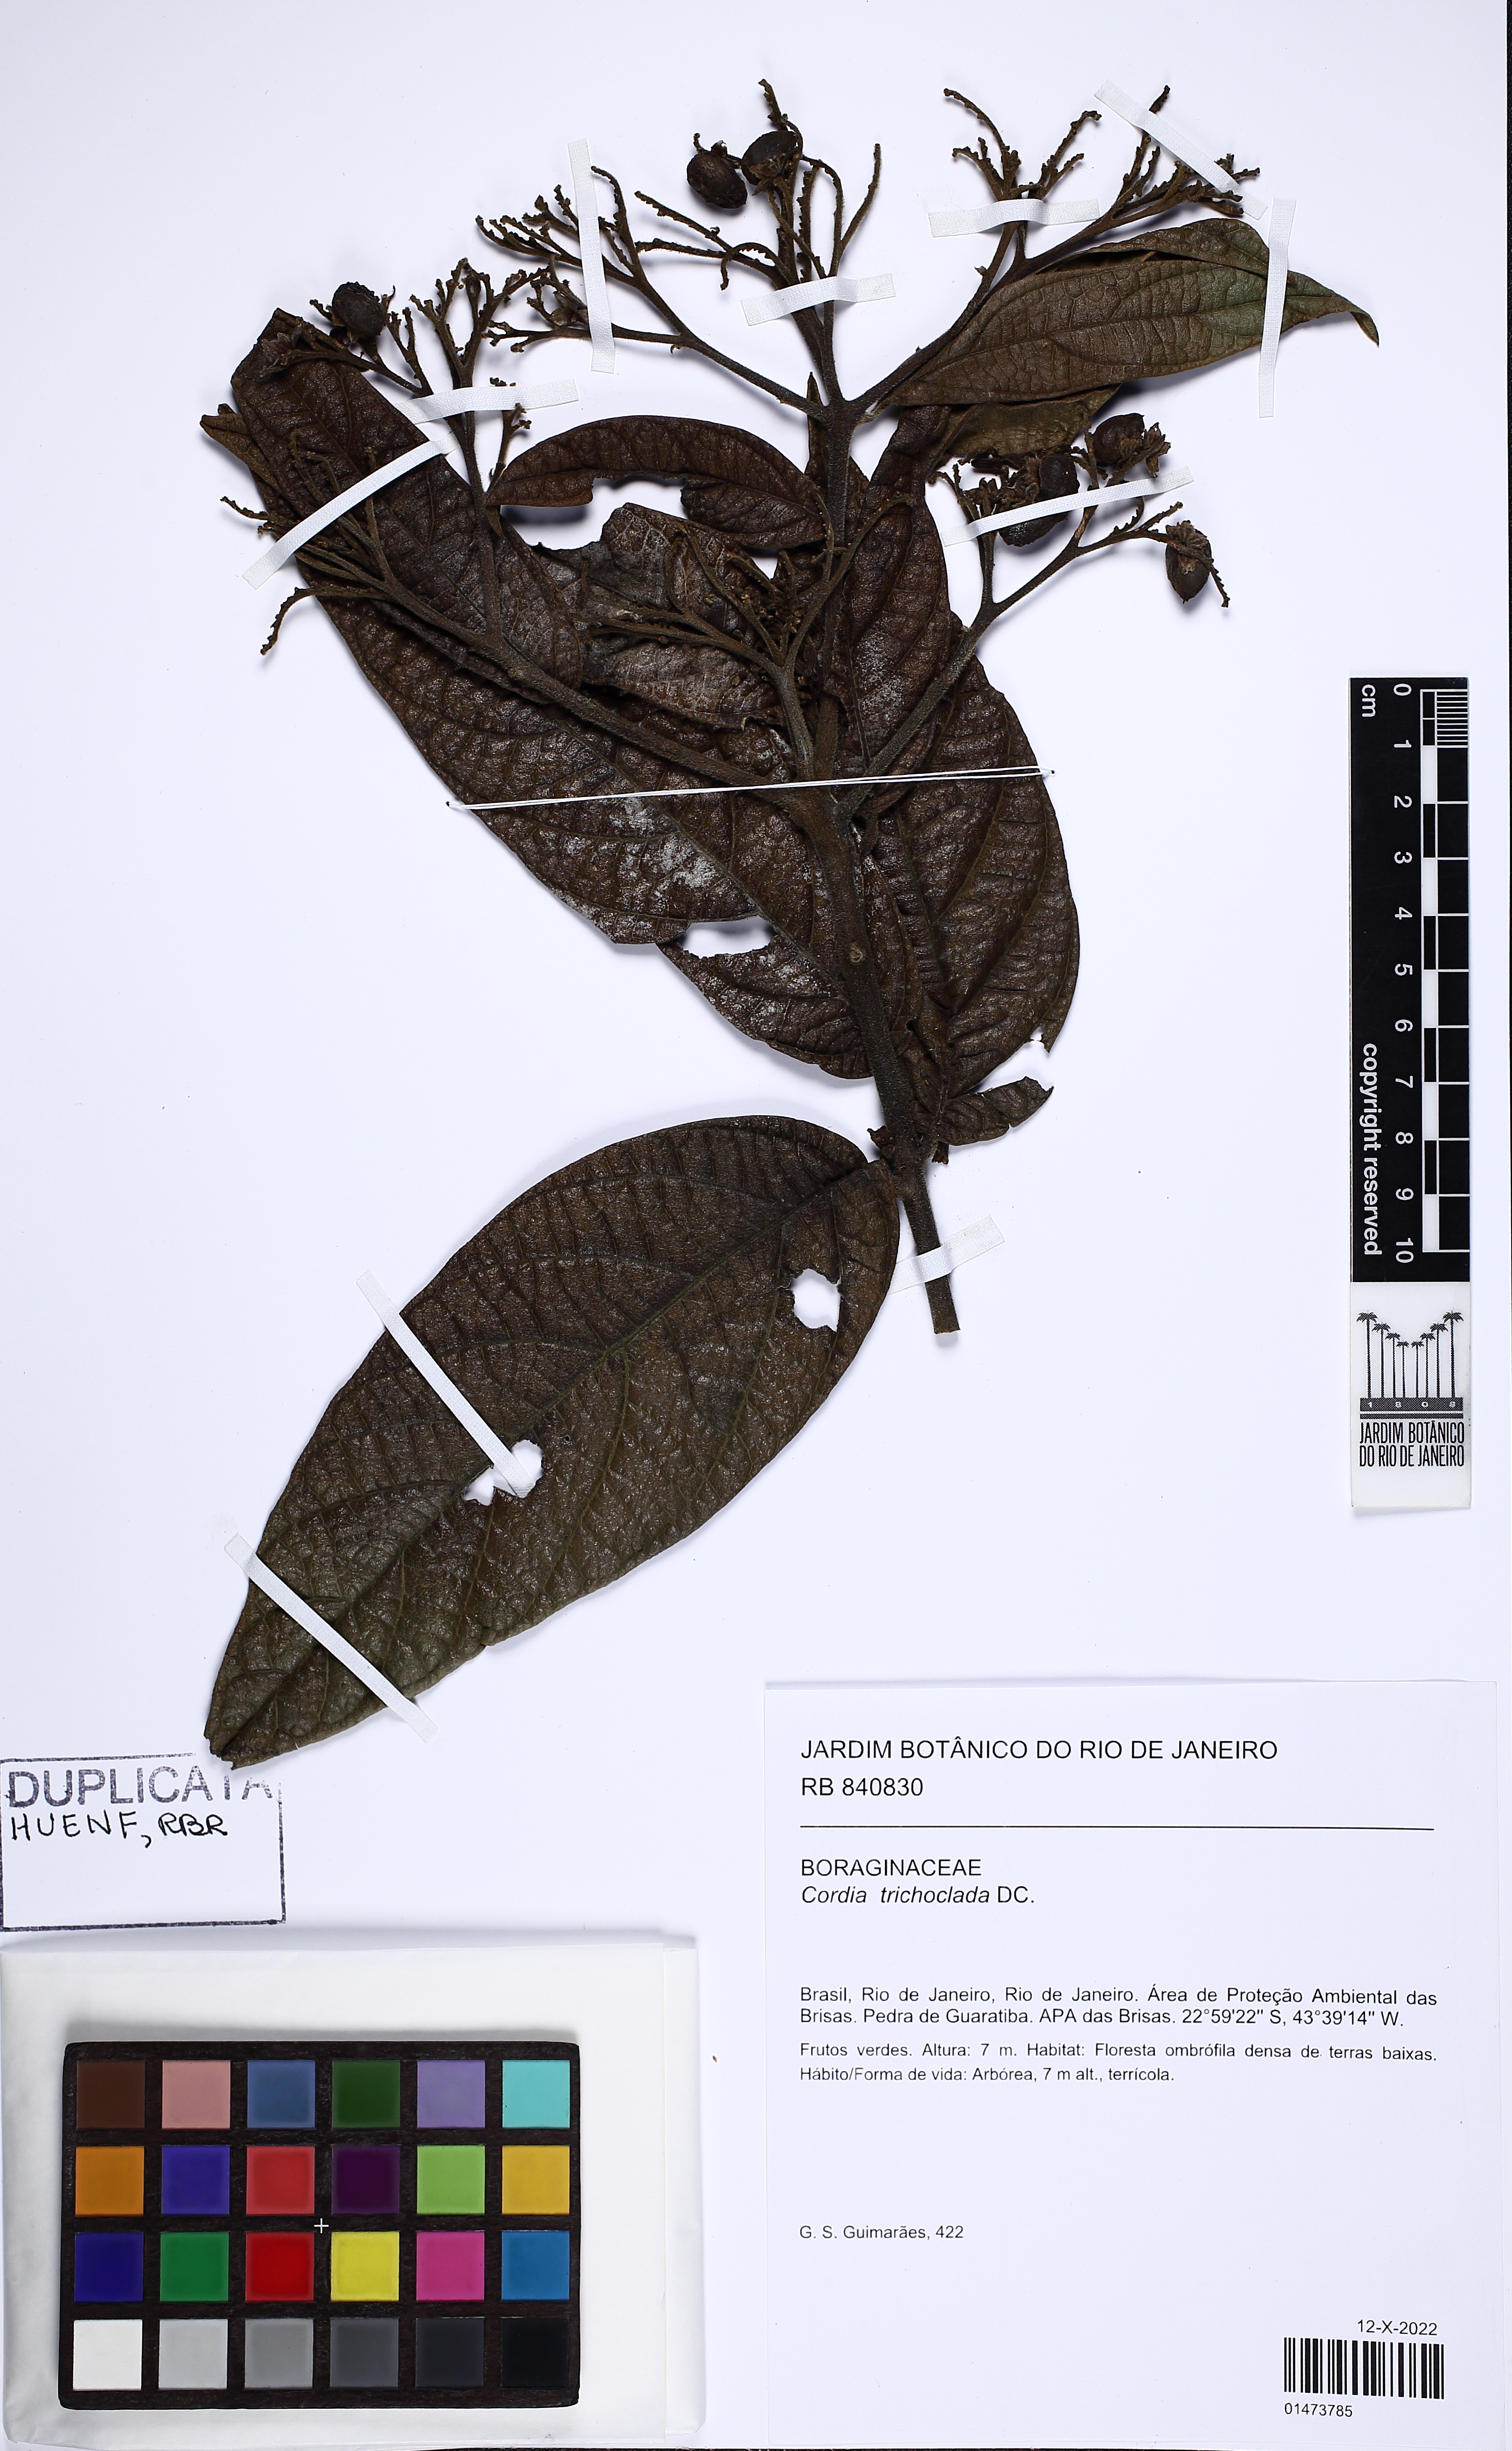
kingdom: Plantae
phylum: Tracheophyta
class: Magnoliopsida
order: Boraginales
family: Cordiaceae
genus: Cordia
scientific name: Cordia trichoclada
